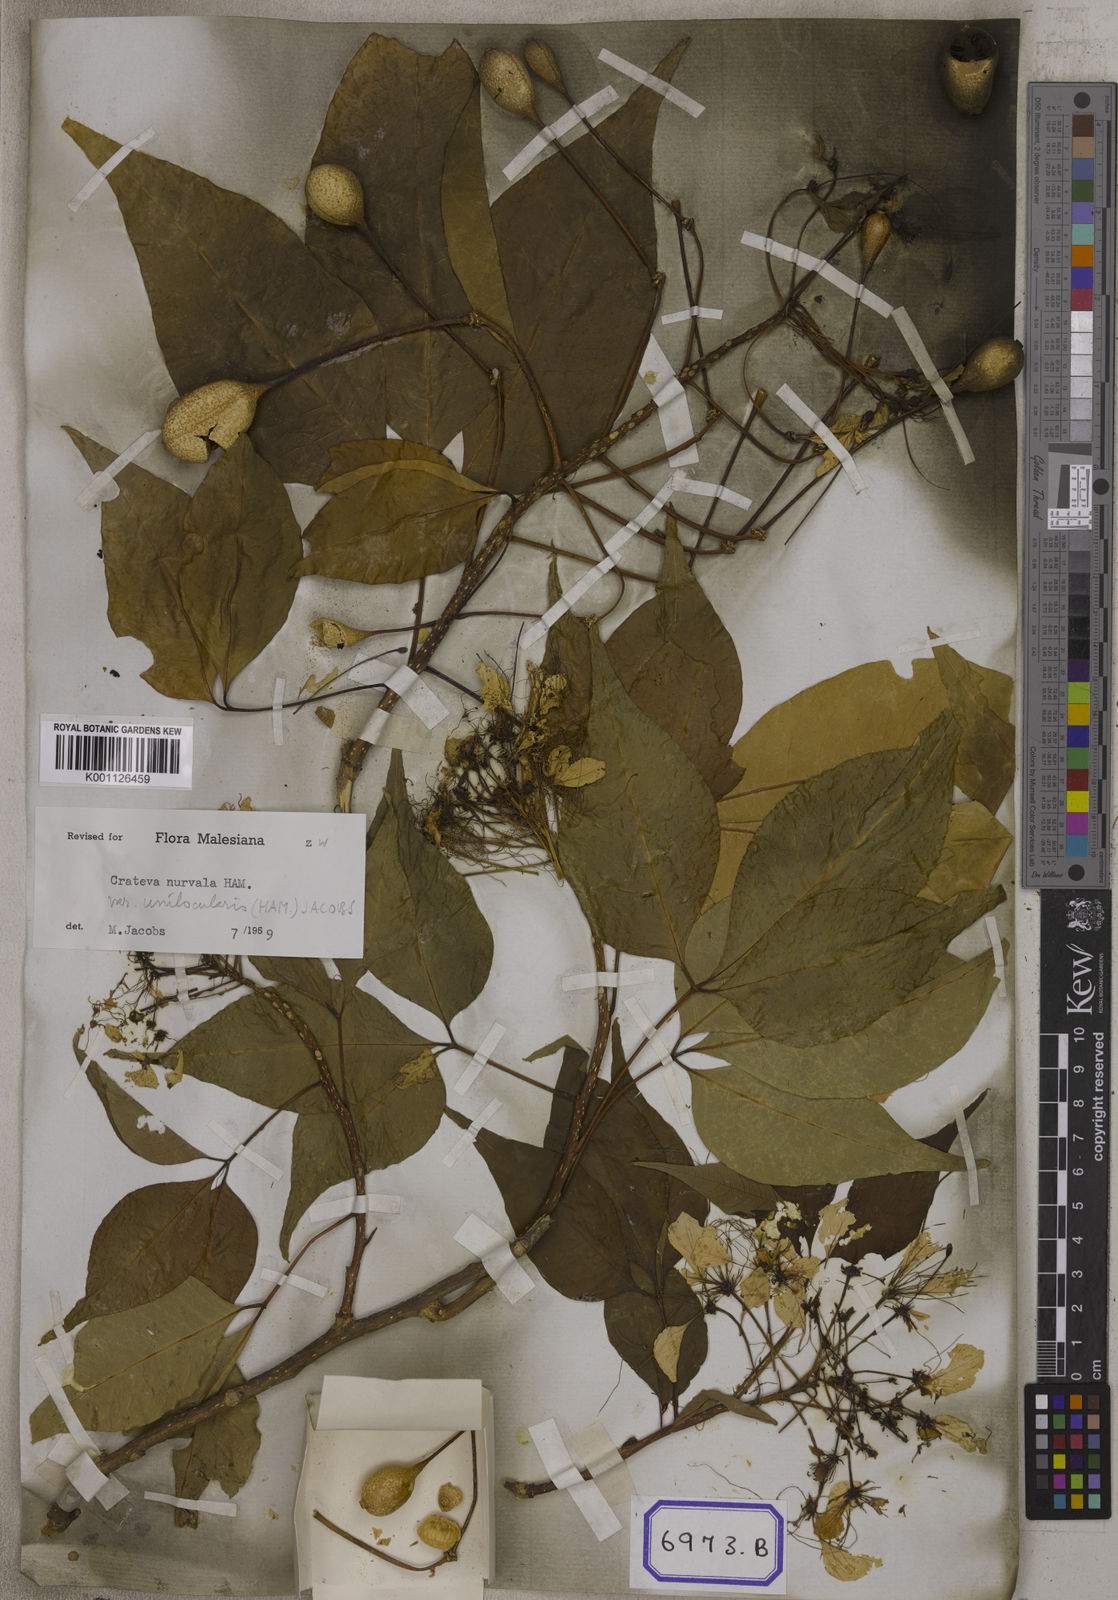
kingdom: Plantae
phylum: Tracheophyta
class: Magnoliopsida
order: Brassicales
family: Capparaceae
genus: Crateva
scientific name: Crateva magna
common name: Three-leaf-caper
